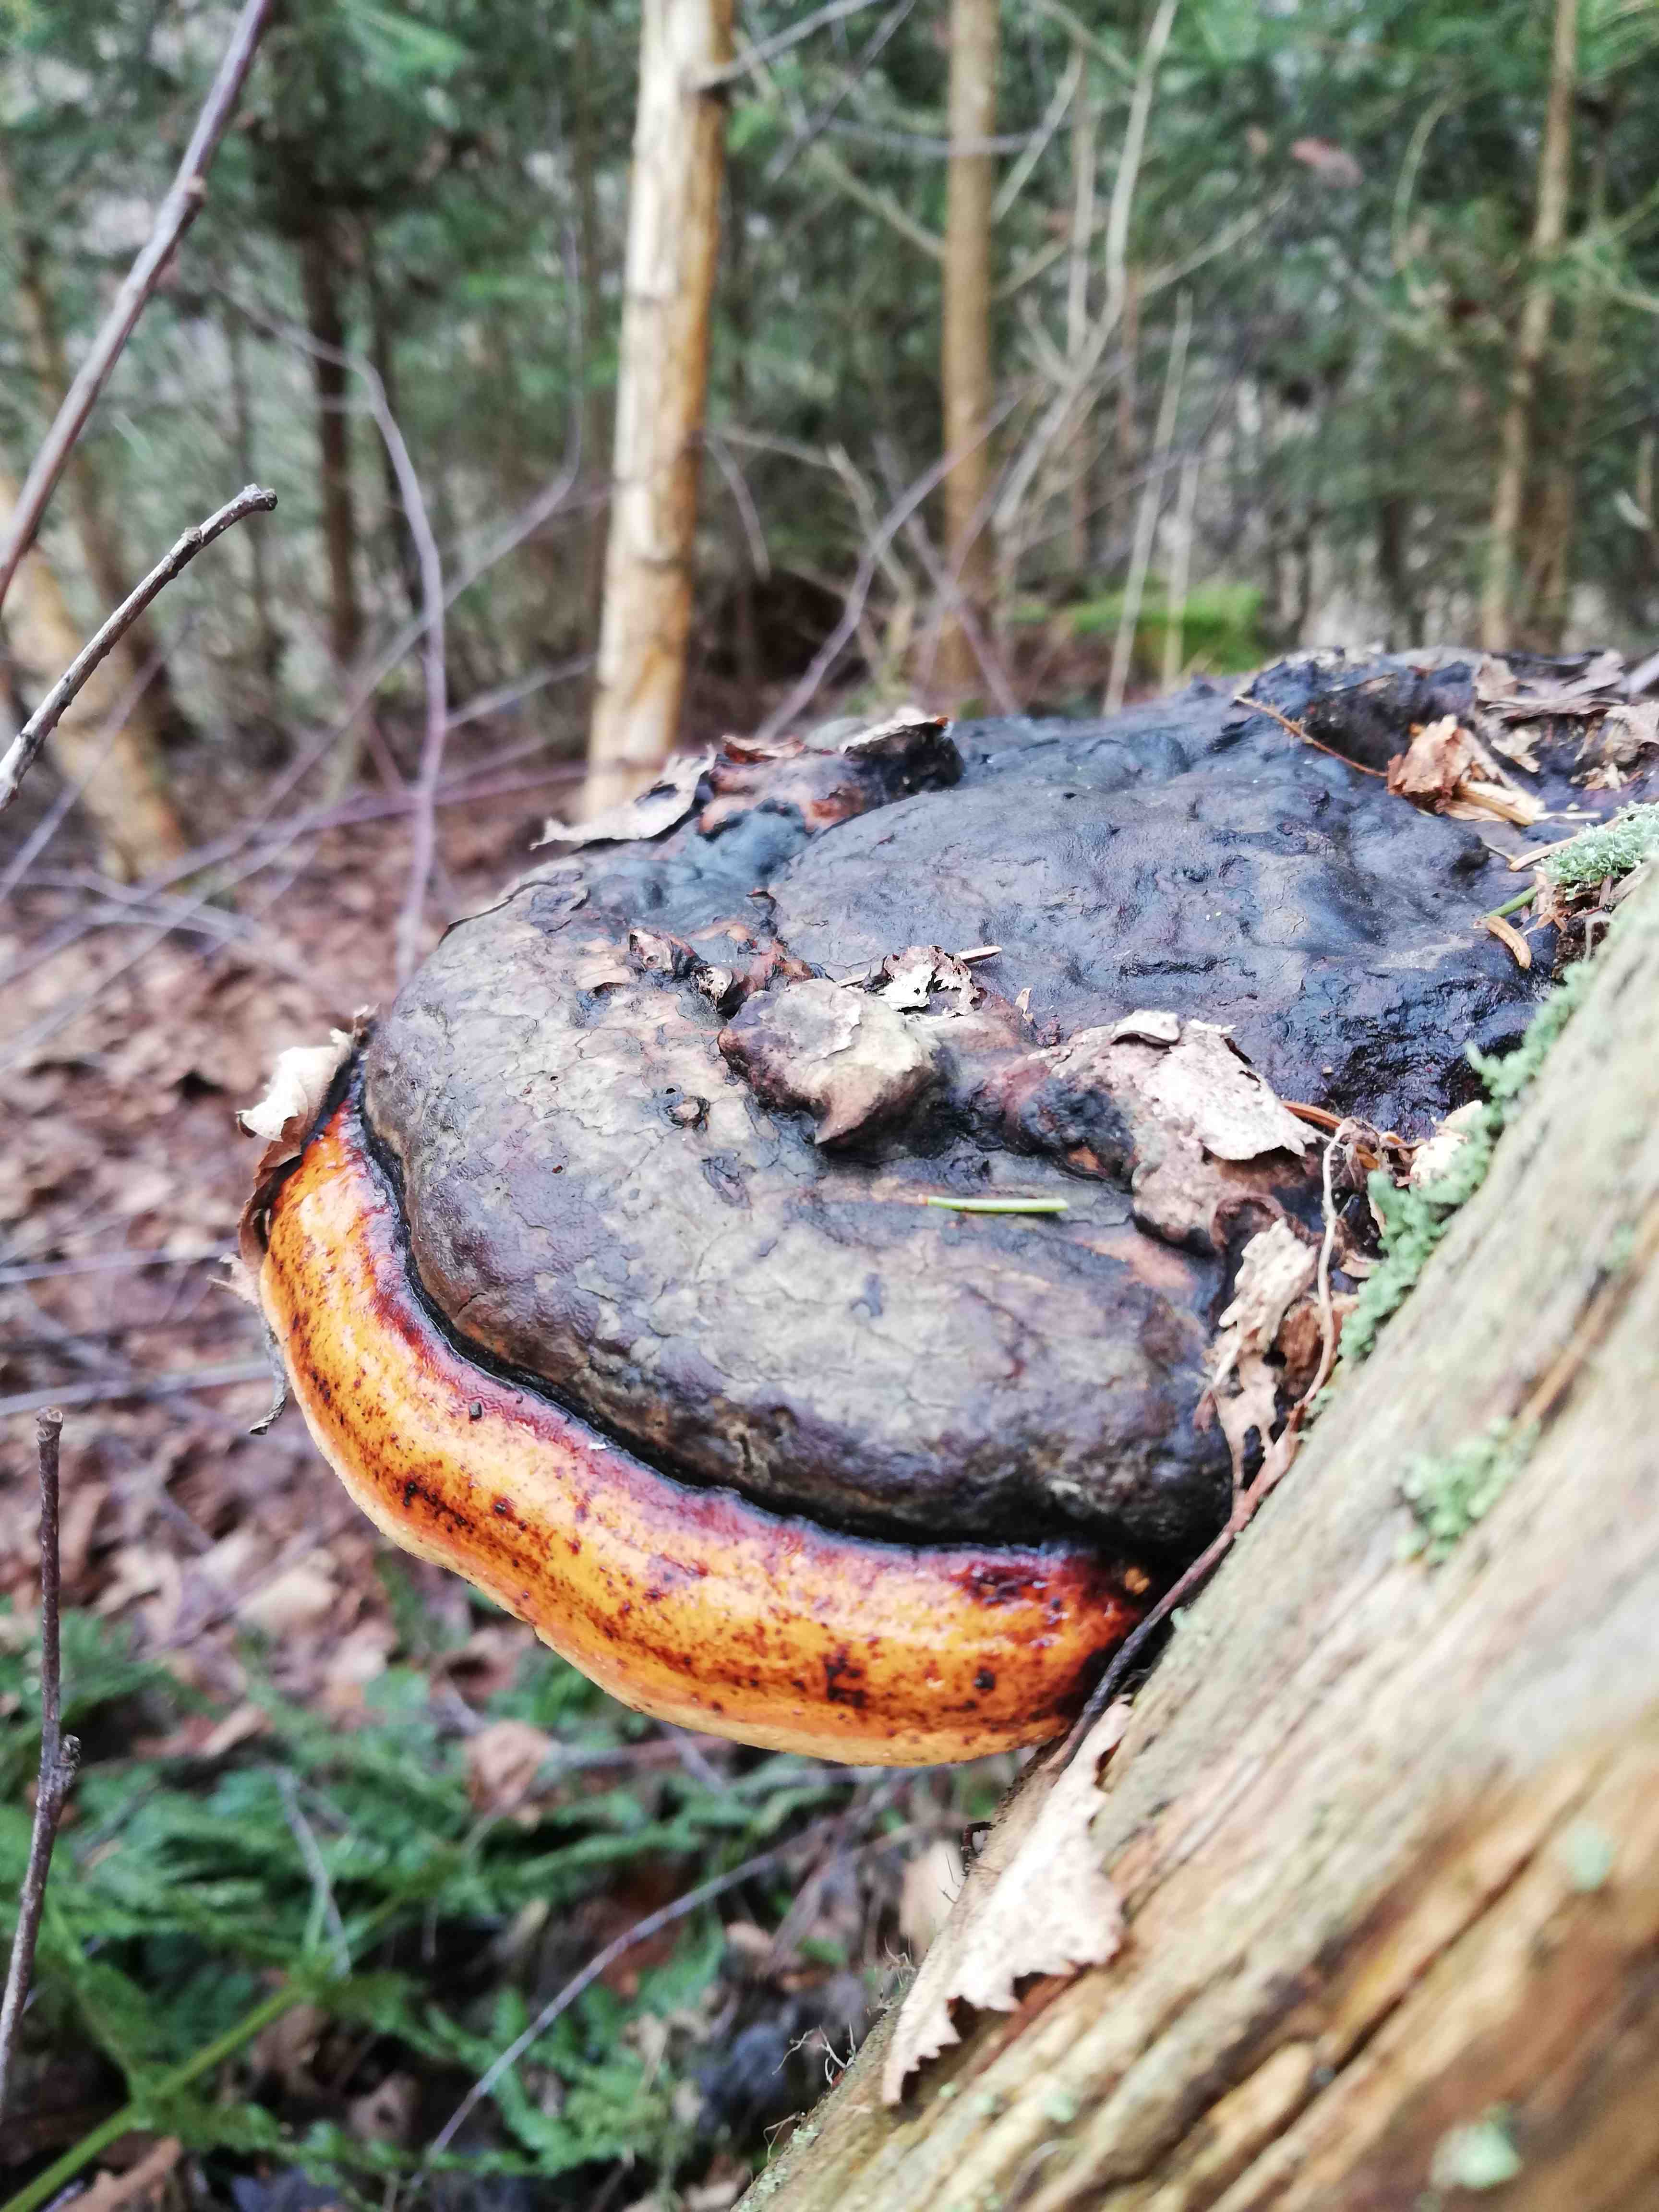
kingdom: Fungi
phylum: Basidiomycota
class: Agaricomycetes
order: Polyporales
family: Fomitopsidaceae
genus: Fomitopsis
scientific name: Fomitopsis pinicola
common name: randbæltet hovporesvamp
